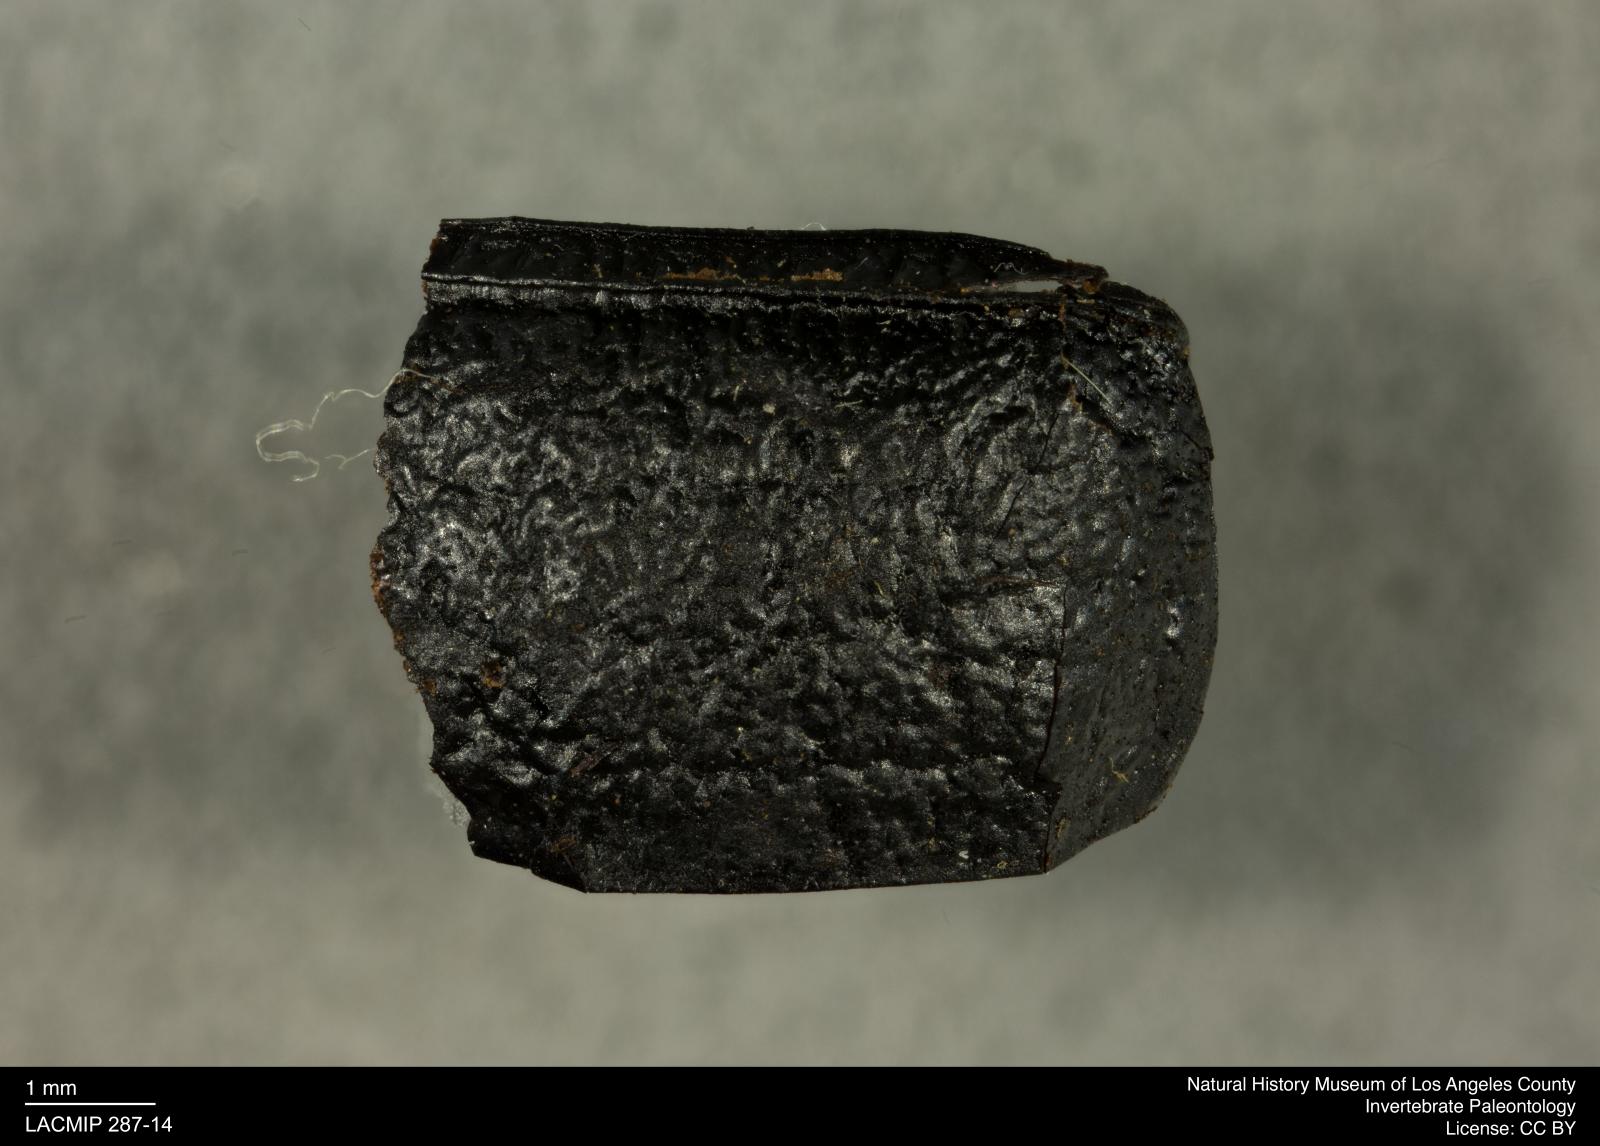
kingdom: Animalia
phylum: Arthropoda
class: Insecta
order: Coleoptera
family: Tenebrionidae
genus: Coniontis
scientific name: Coniontis abdominalis
